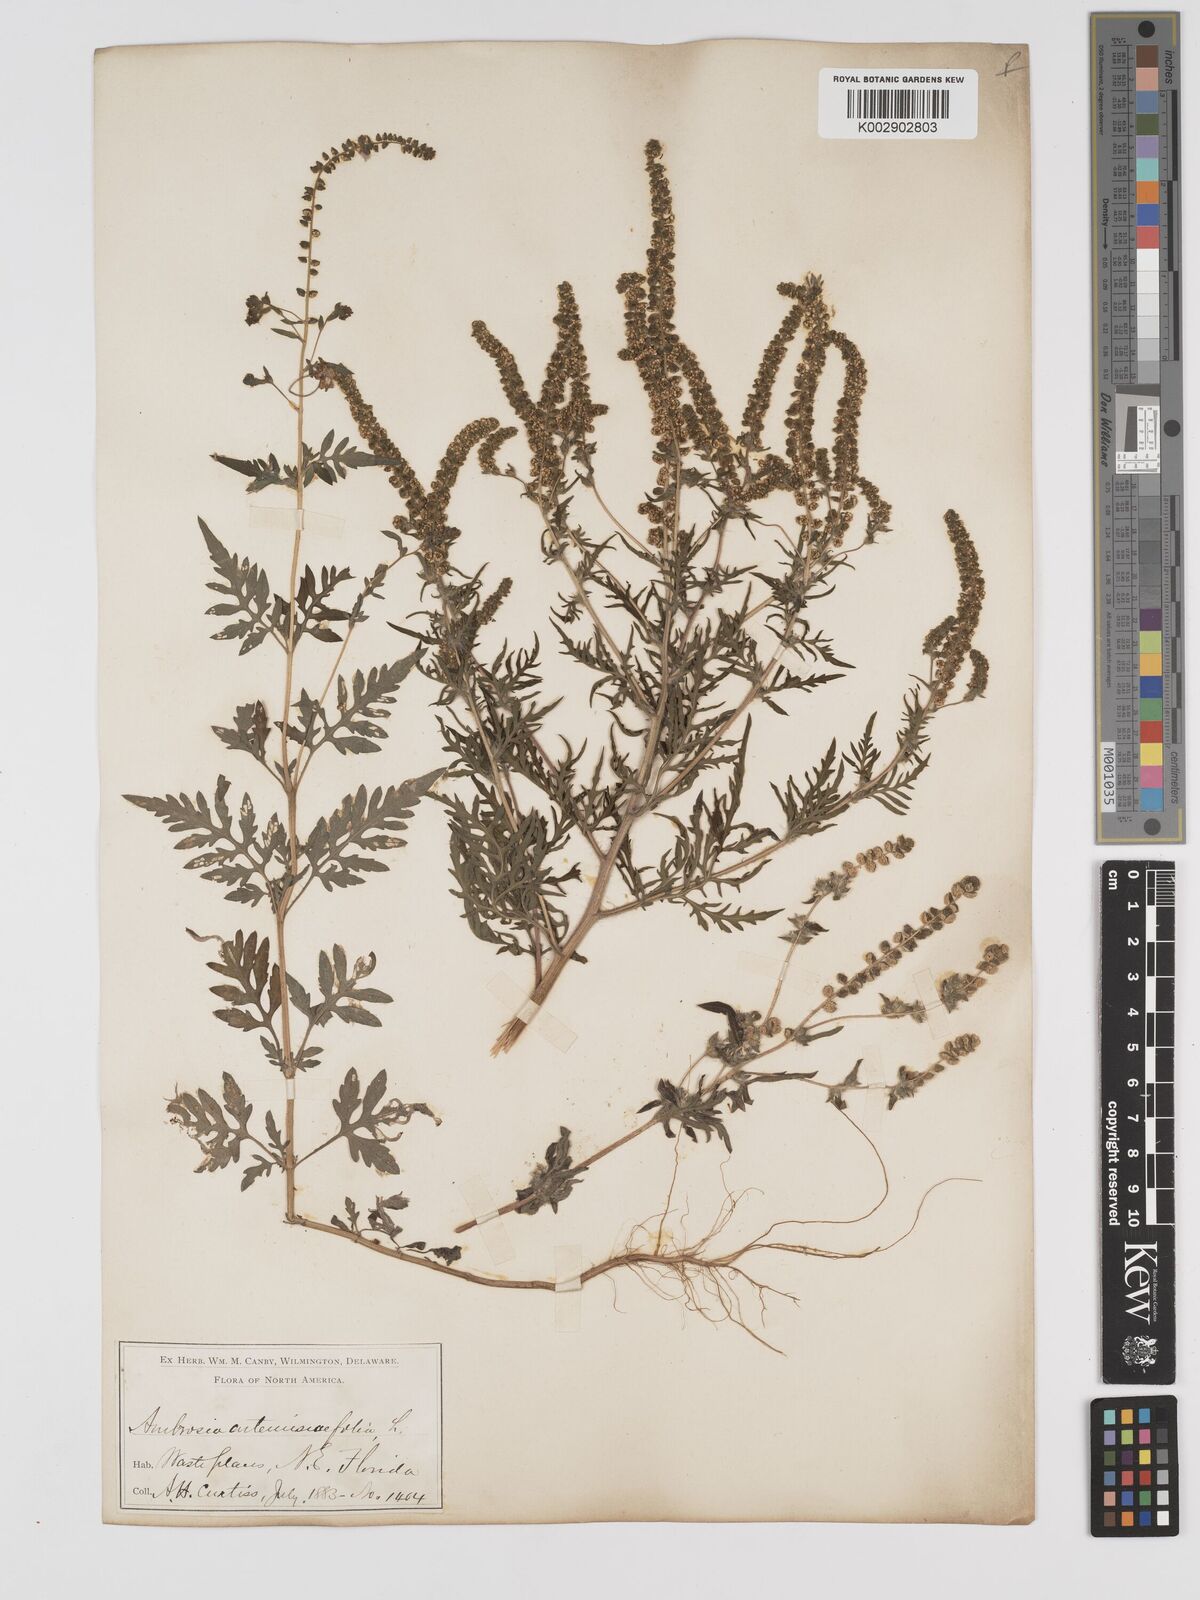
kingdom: Plantae
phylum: Tracheophyta
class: Magnoliopsida
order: Asterales
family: Asteraceae
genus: Ambrosia
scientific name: Ambrosia artemisiifolia
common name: Annual ragweed
